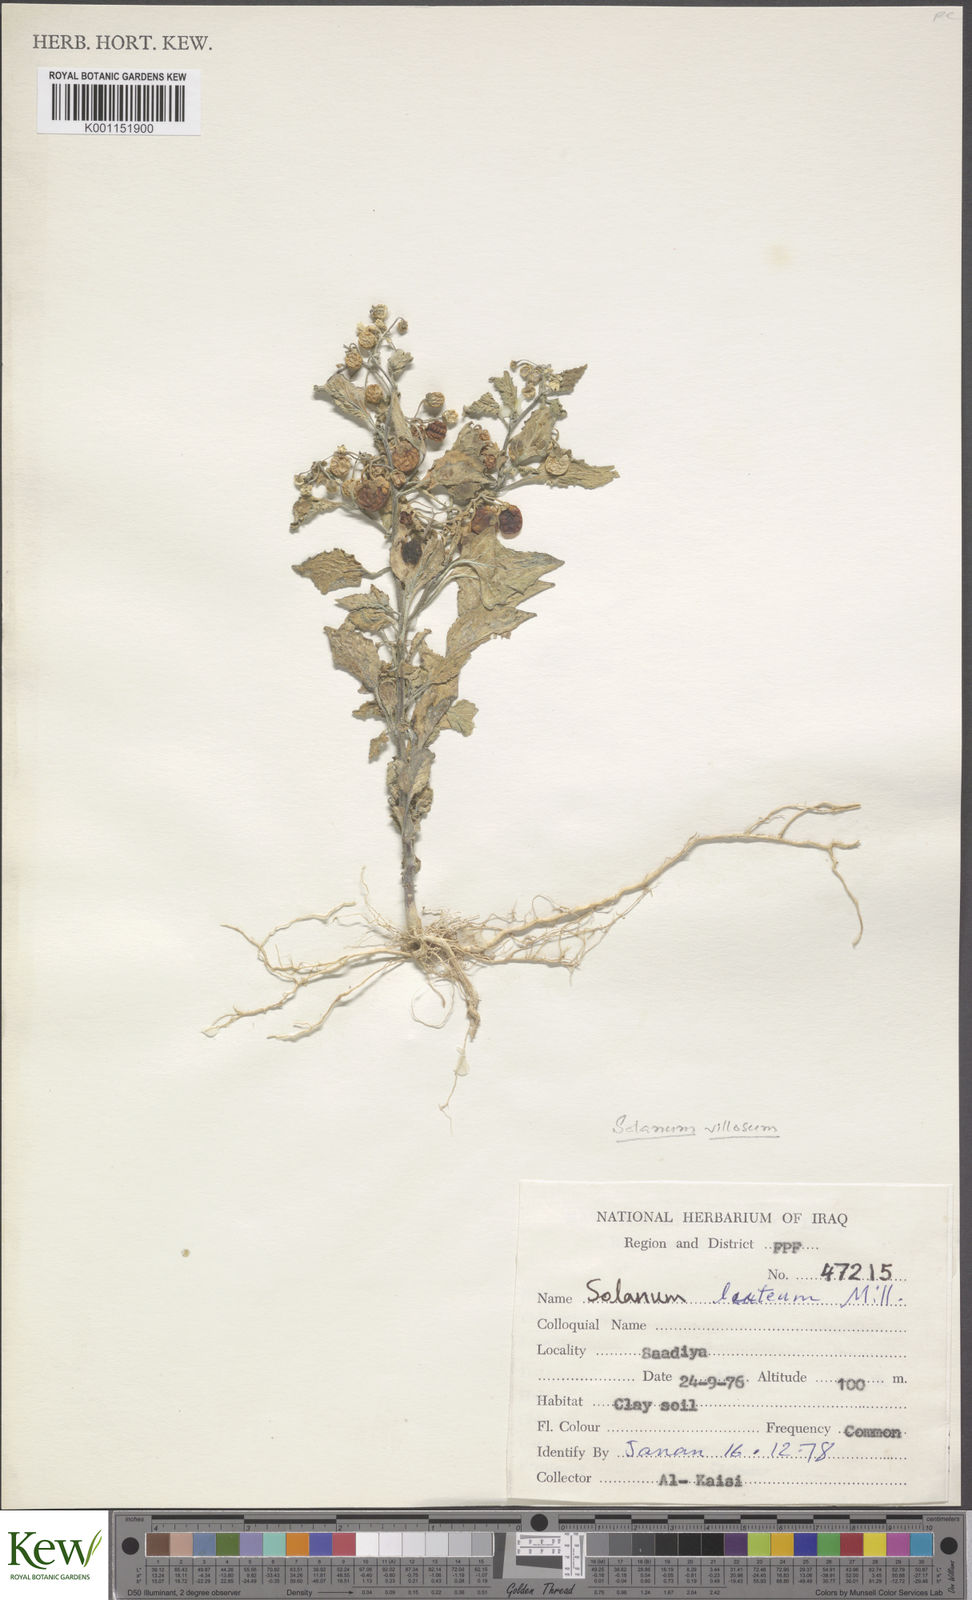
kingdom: Plantae
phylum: Tracheophyta
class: Magnoliopsida
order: Solanales
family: Solanaceae
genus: Solanum
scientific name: Solanum villosum
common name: Red nightshade
